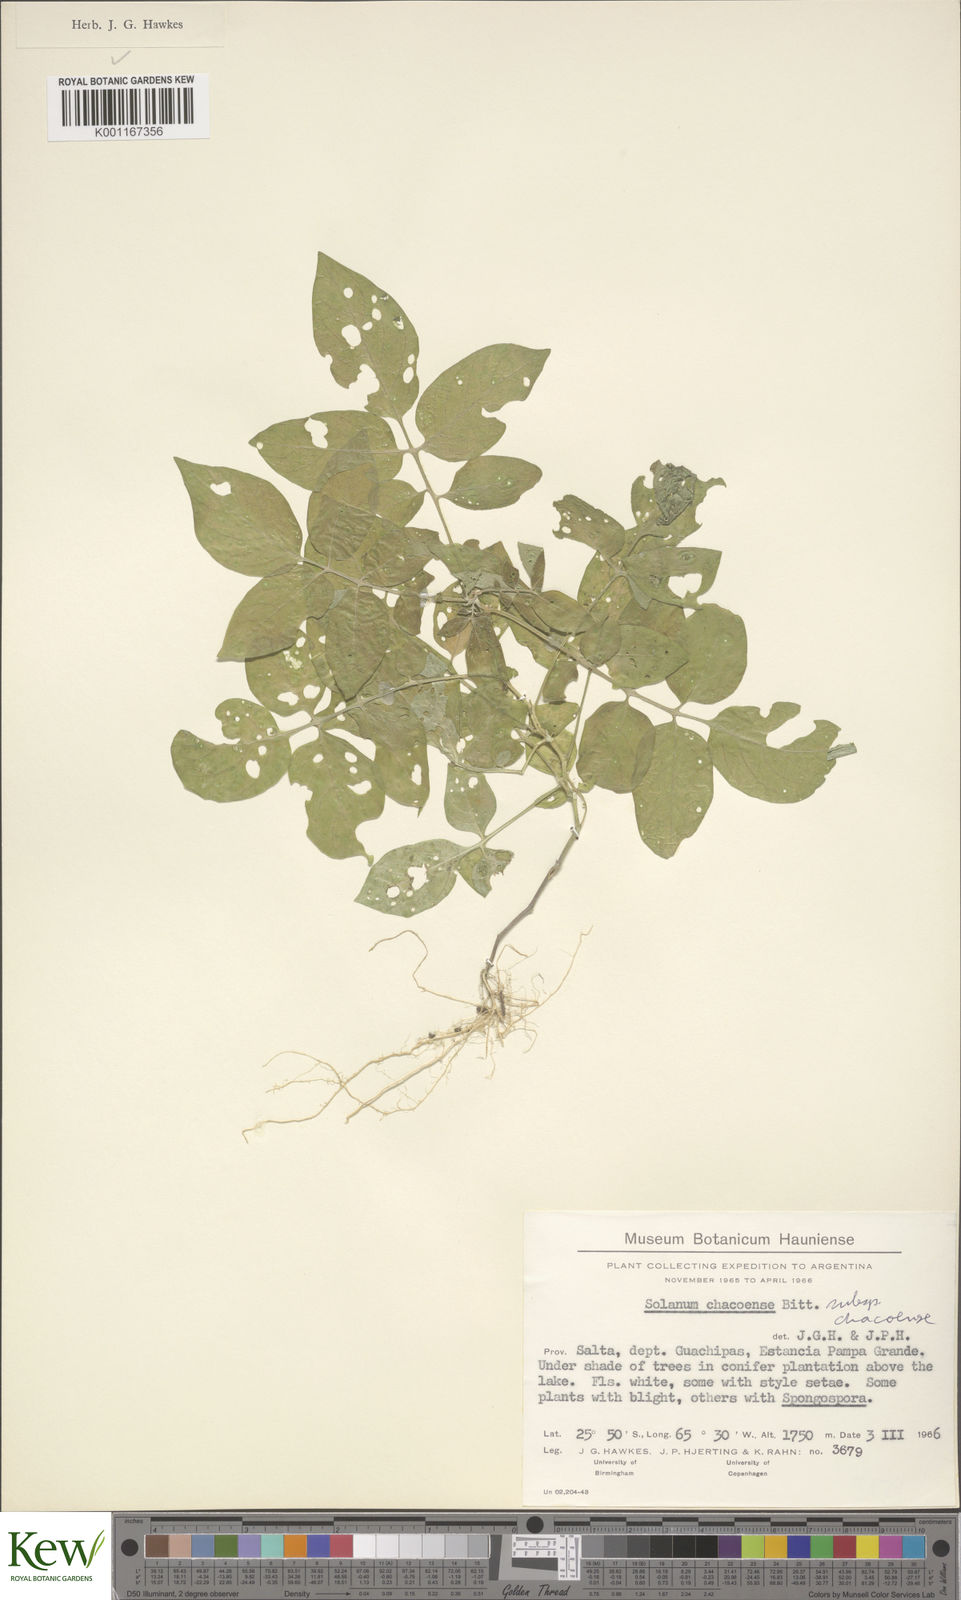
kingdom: Plantae
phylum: Tracheophyta
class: Magnoliopsida
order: Solanales
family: Solanaceae
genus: Solanum
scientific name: Solanum chacoense
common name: Chaco potato
